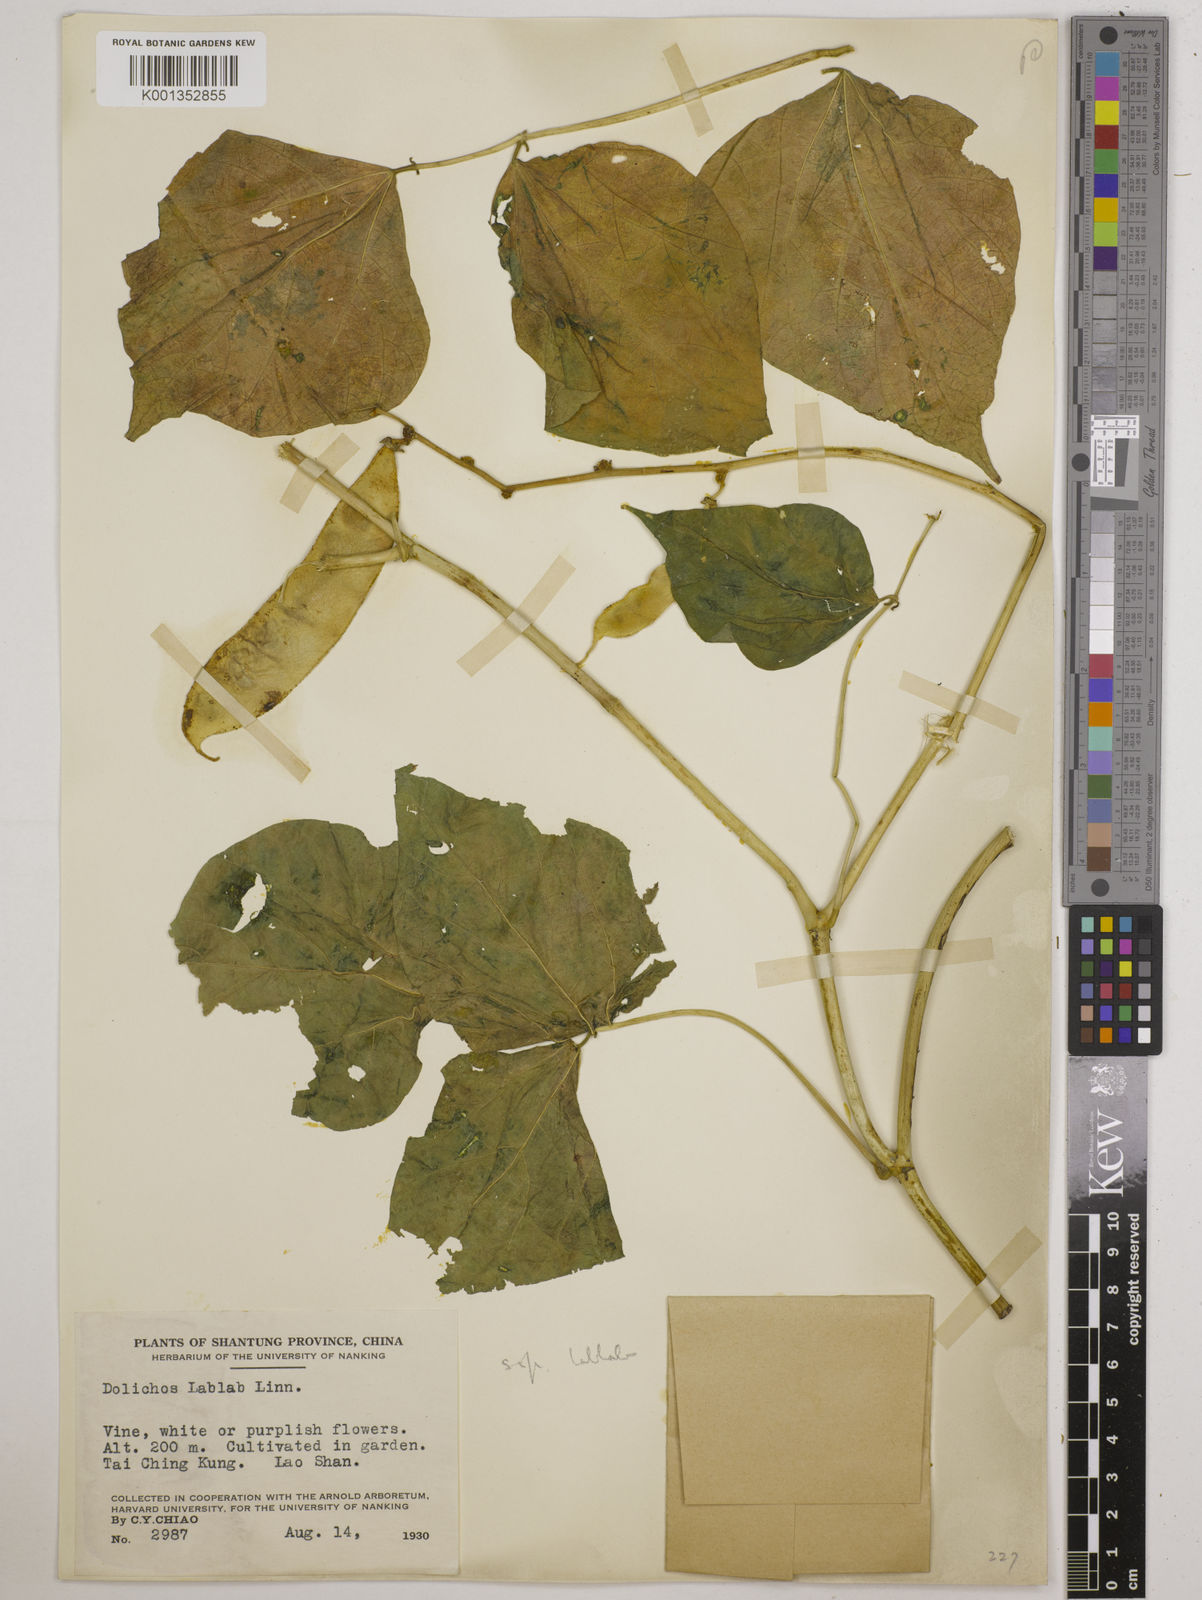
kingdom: Plantae
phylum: Tracheophyta
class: Magnoliopsida
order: Fabales
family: Fabaceae
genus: Lablab
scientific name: Lablab purpureus
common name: Lablab-bean
